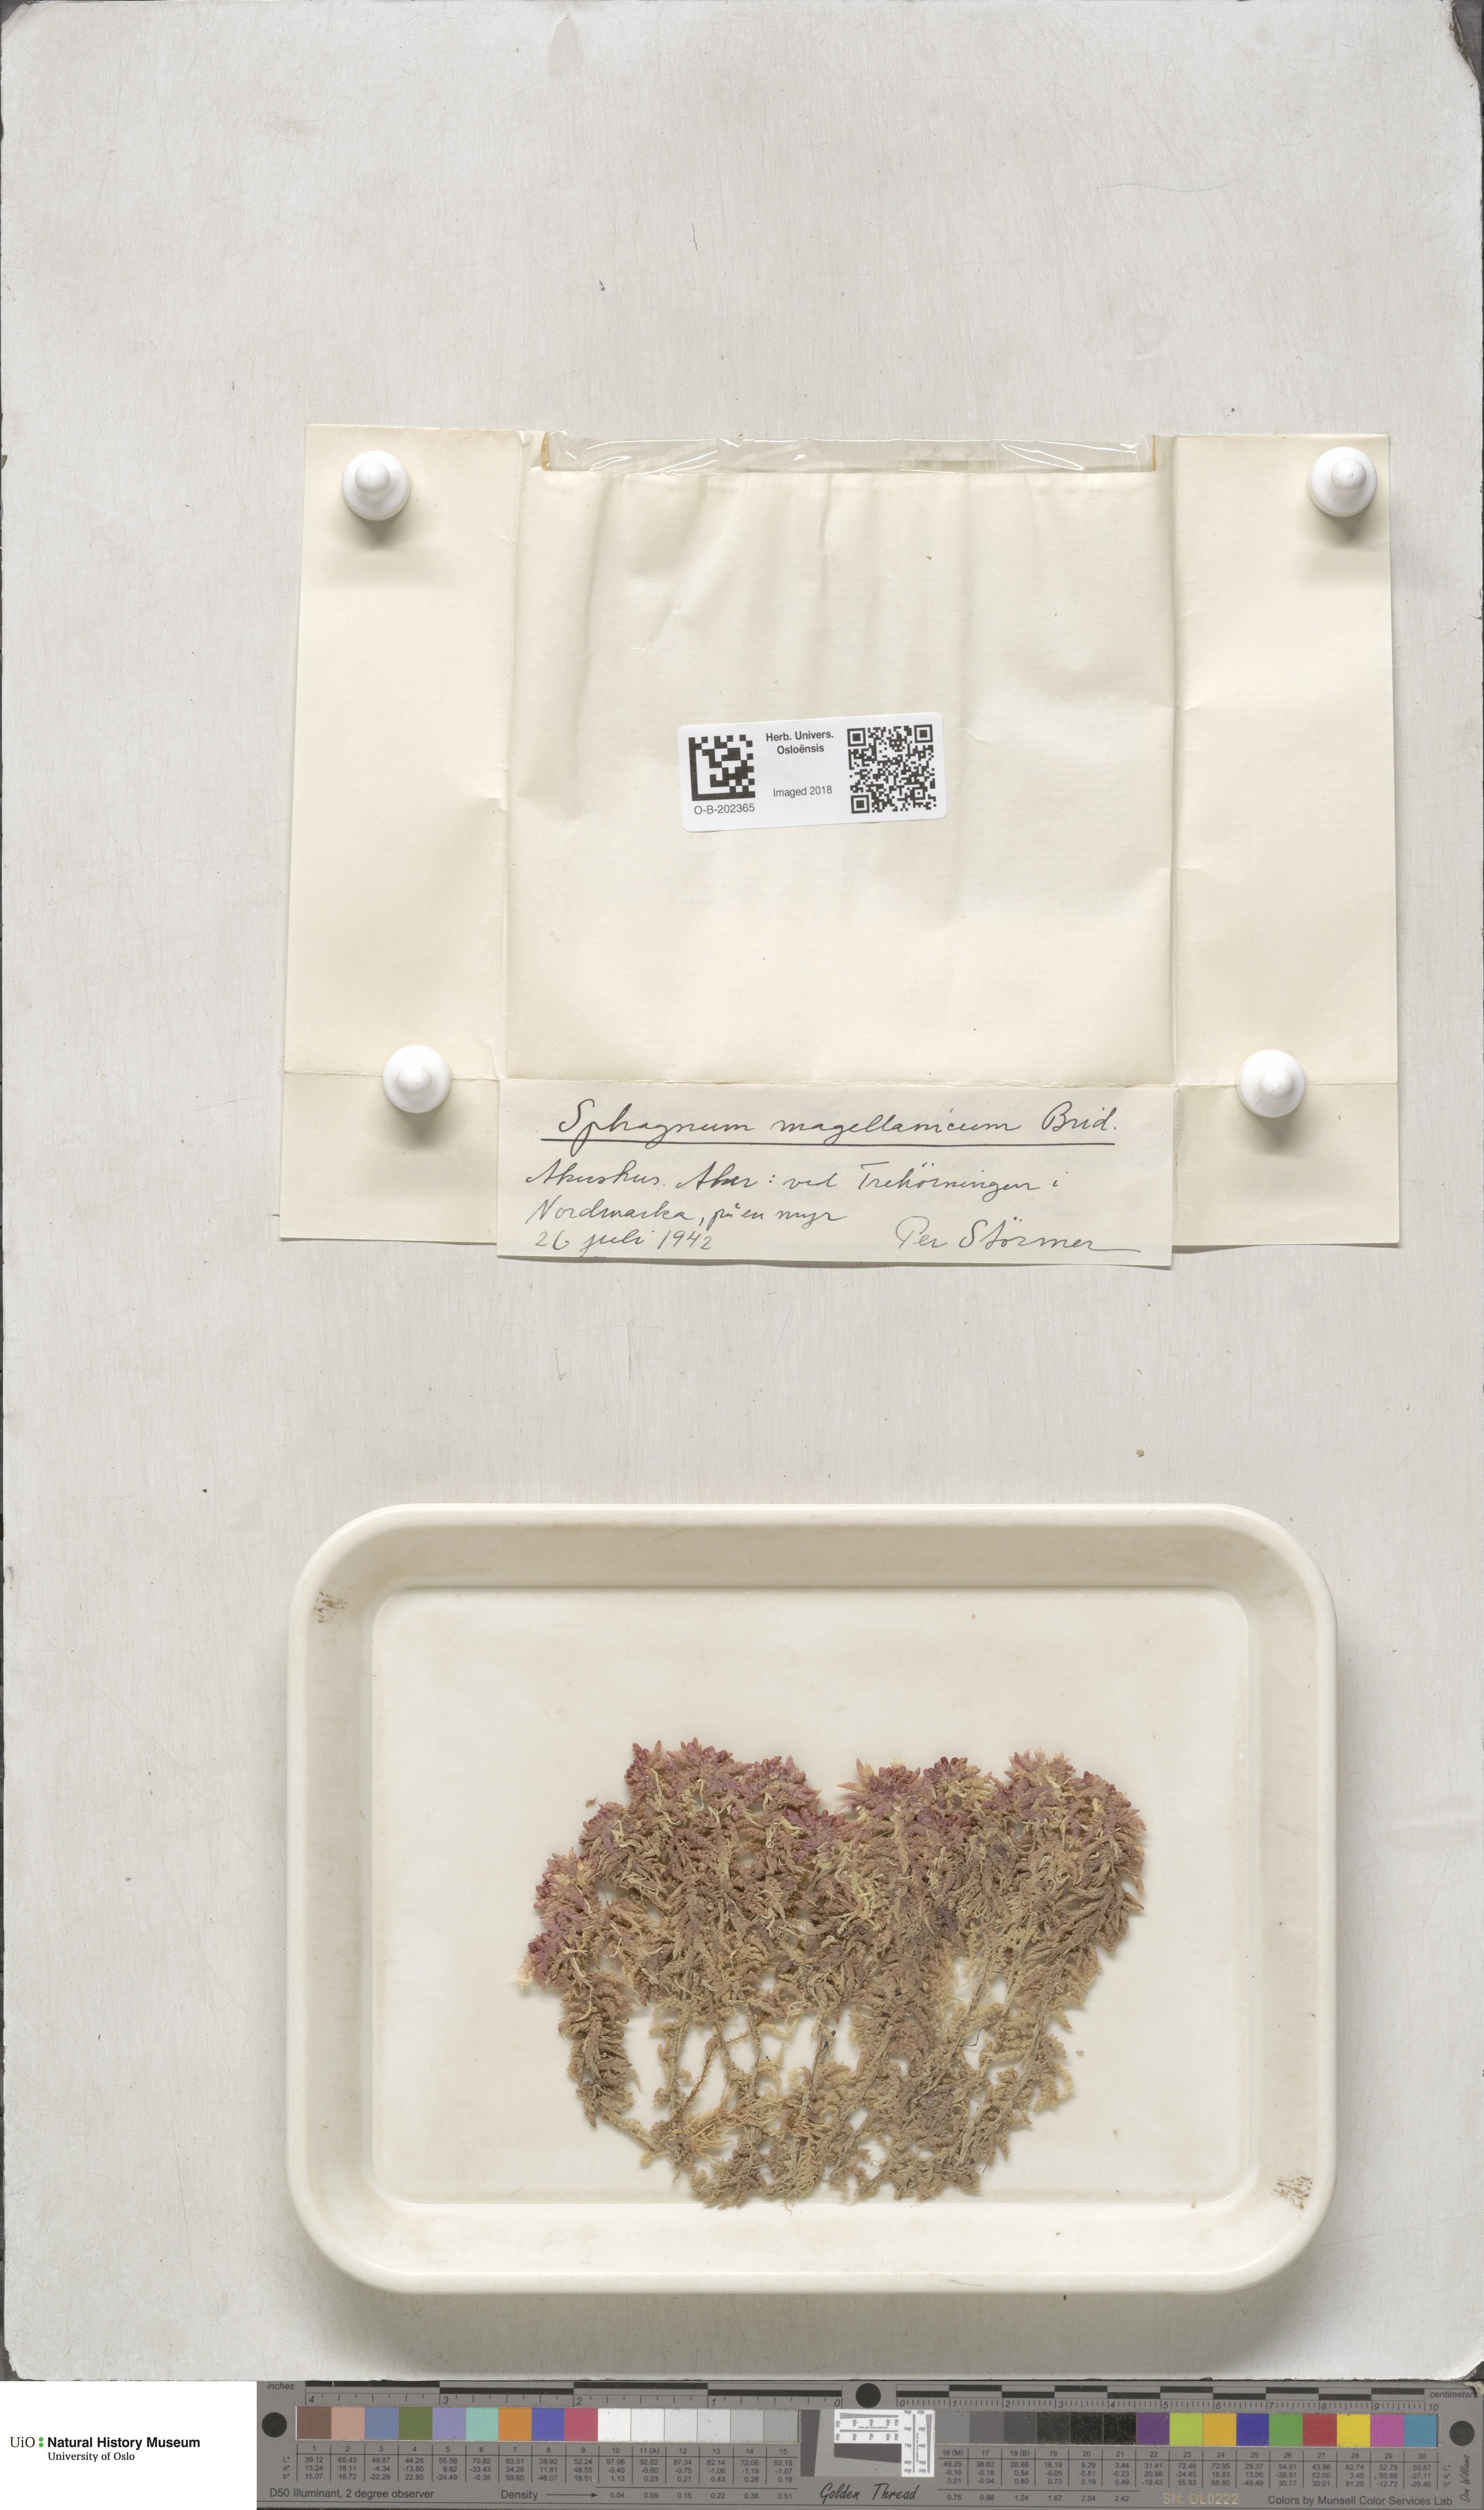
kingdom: Plantae
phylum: Bryophyta
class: Sphagnopsida
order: Sphagnales
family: Sphagnaceae
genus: Sphagnum
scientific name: Sphagnum magellanicum
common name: Magellan's peat moss
